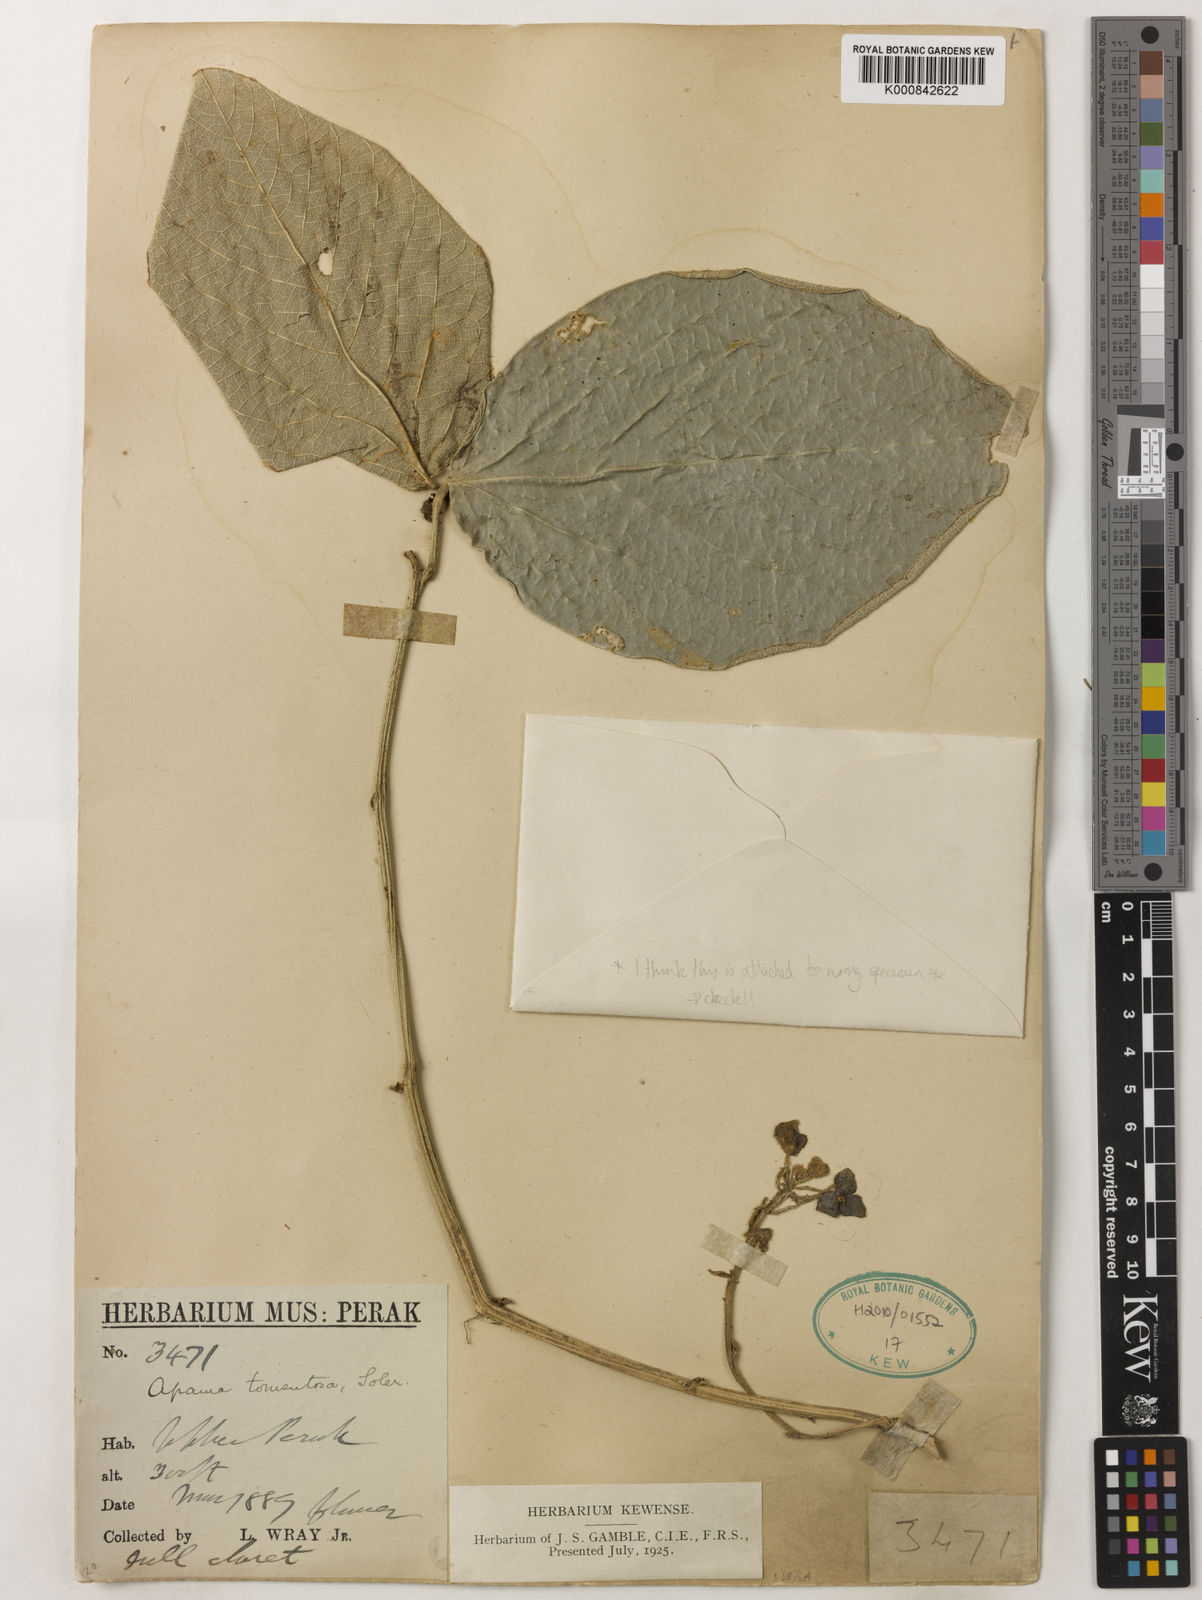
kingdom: Plantae
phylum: Tracheophyta
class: Magnoliopsida
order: Piperales
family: Aristolochiaceae
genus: Thottea
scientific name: Thottea tomentosa
